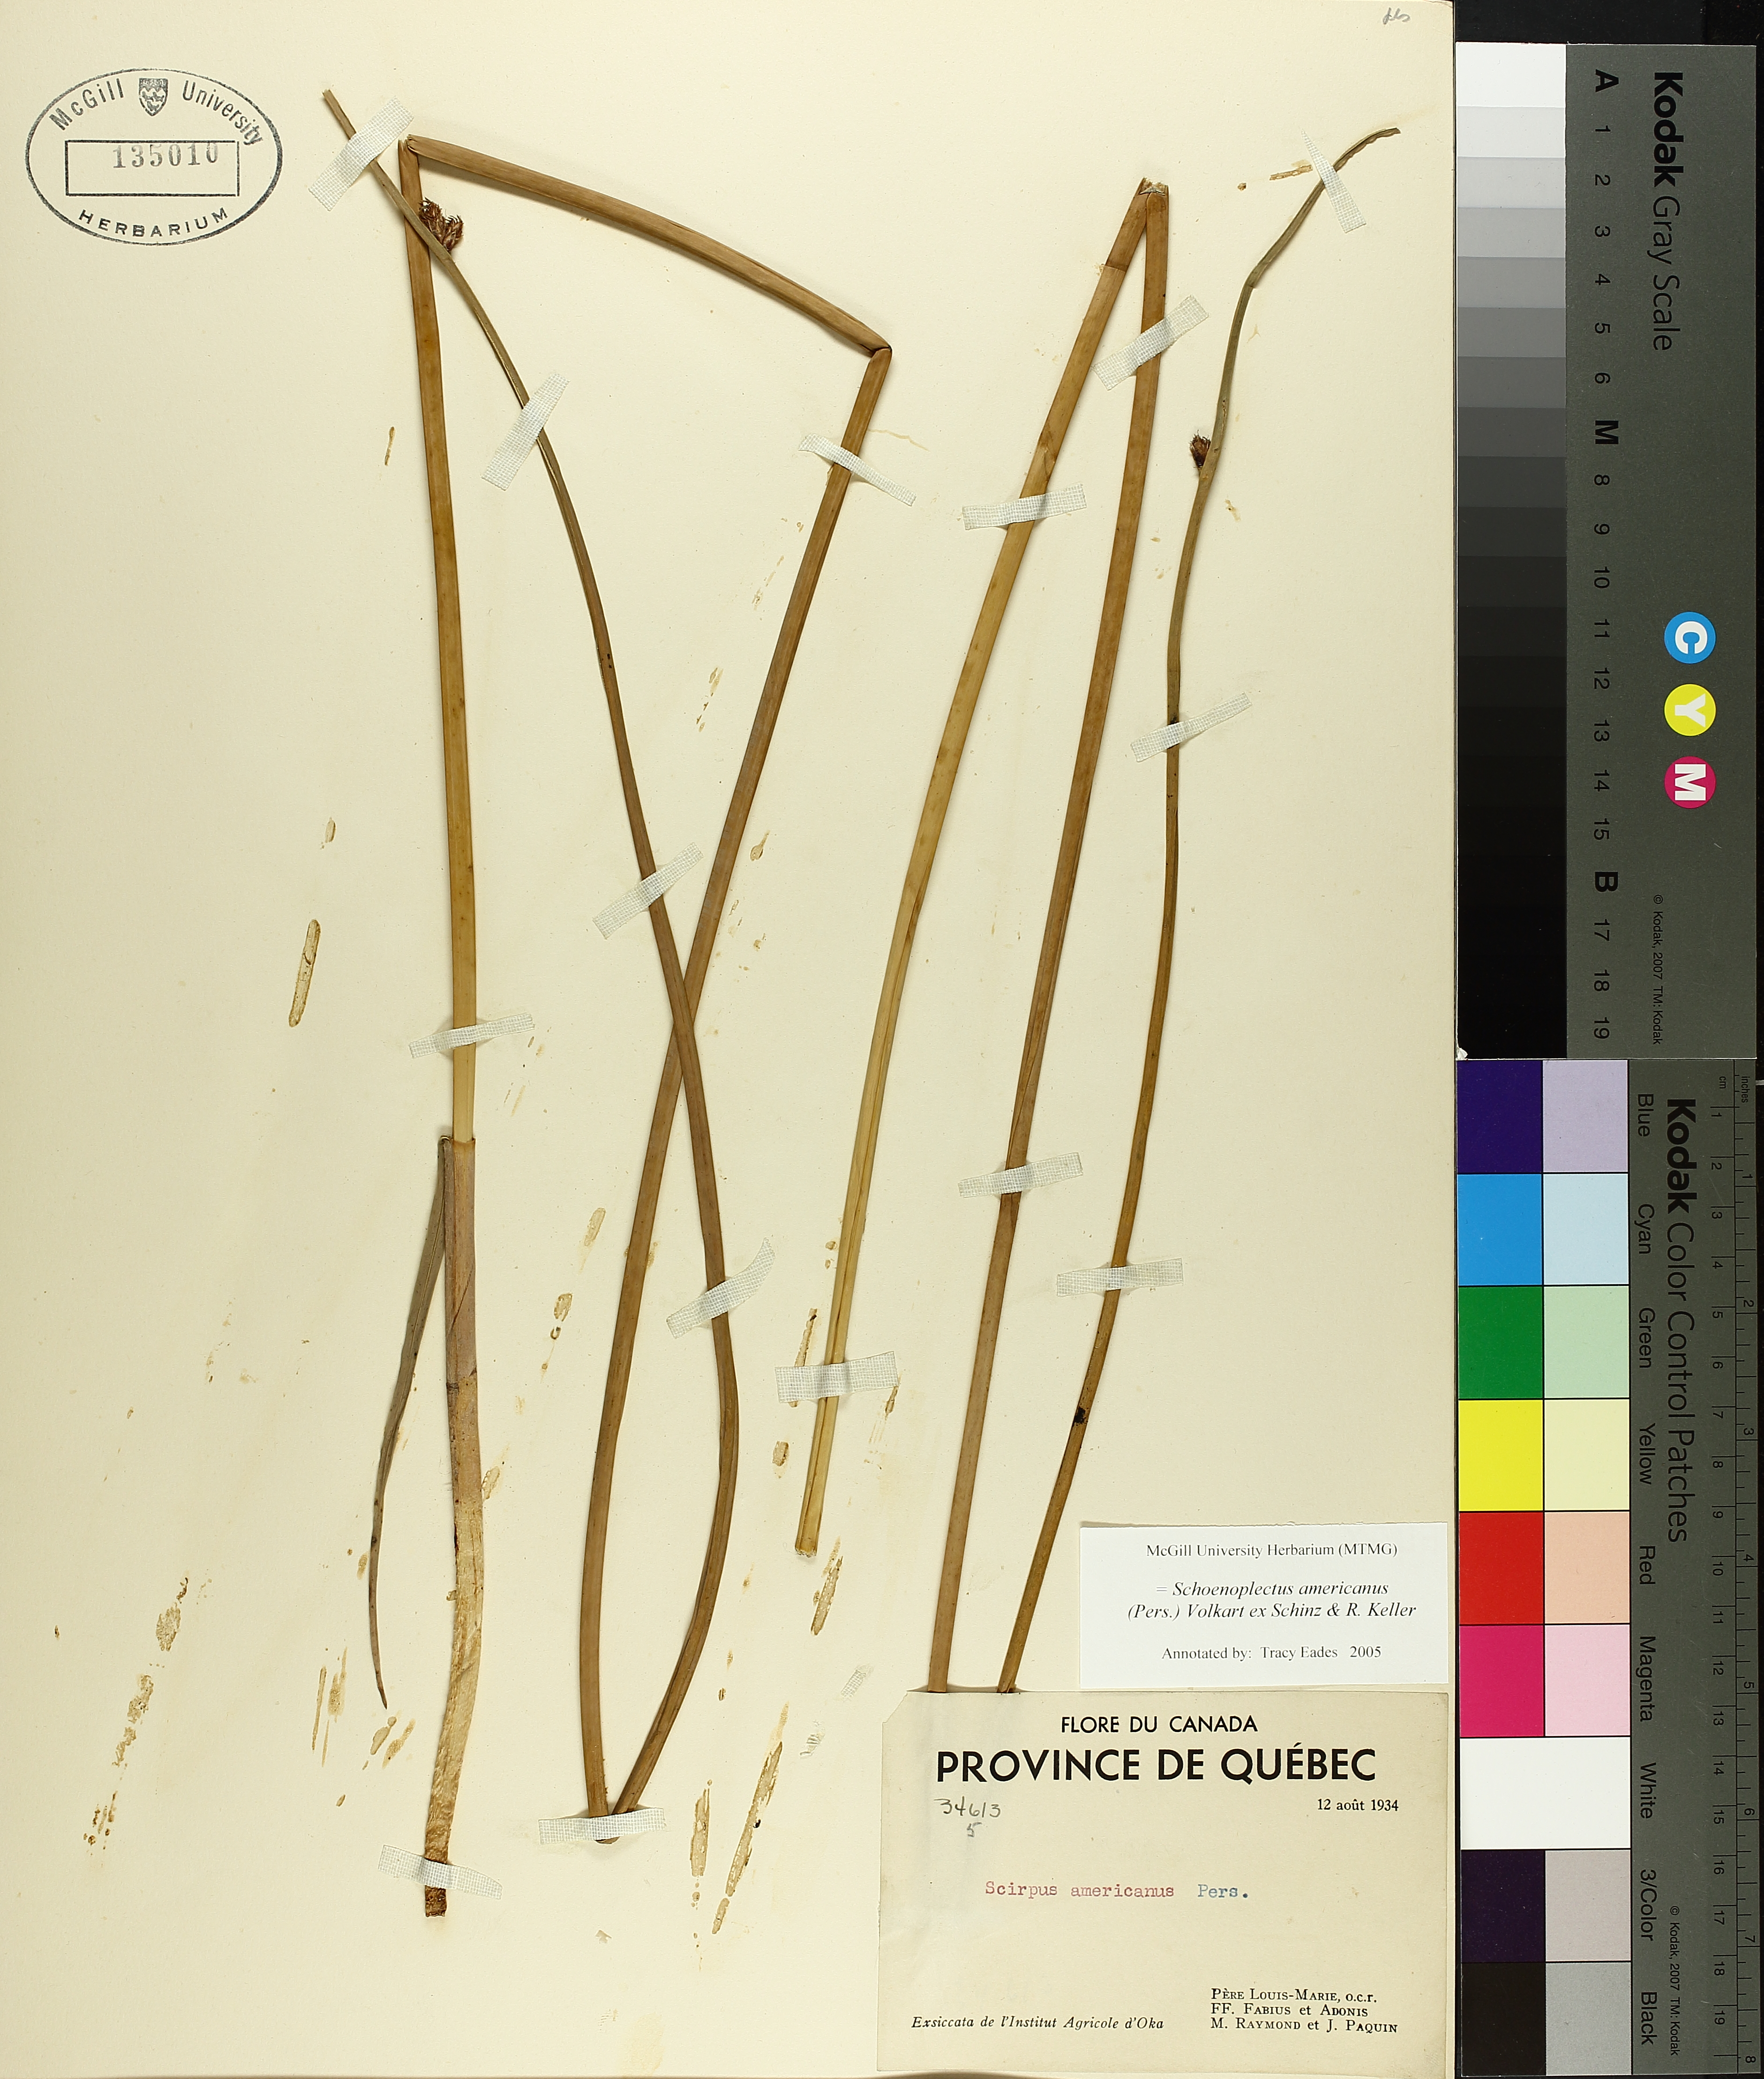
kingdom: Plantae
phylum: Tracheophyta
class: Liliopsida
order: Poales
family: Cyperaceae
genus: Schoenoplectus
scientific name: Schoenoplectus americanus
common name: American three-square bulrush
